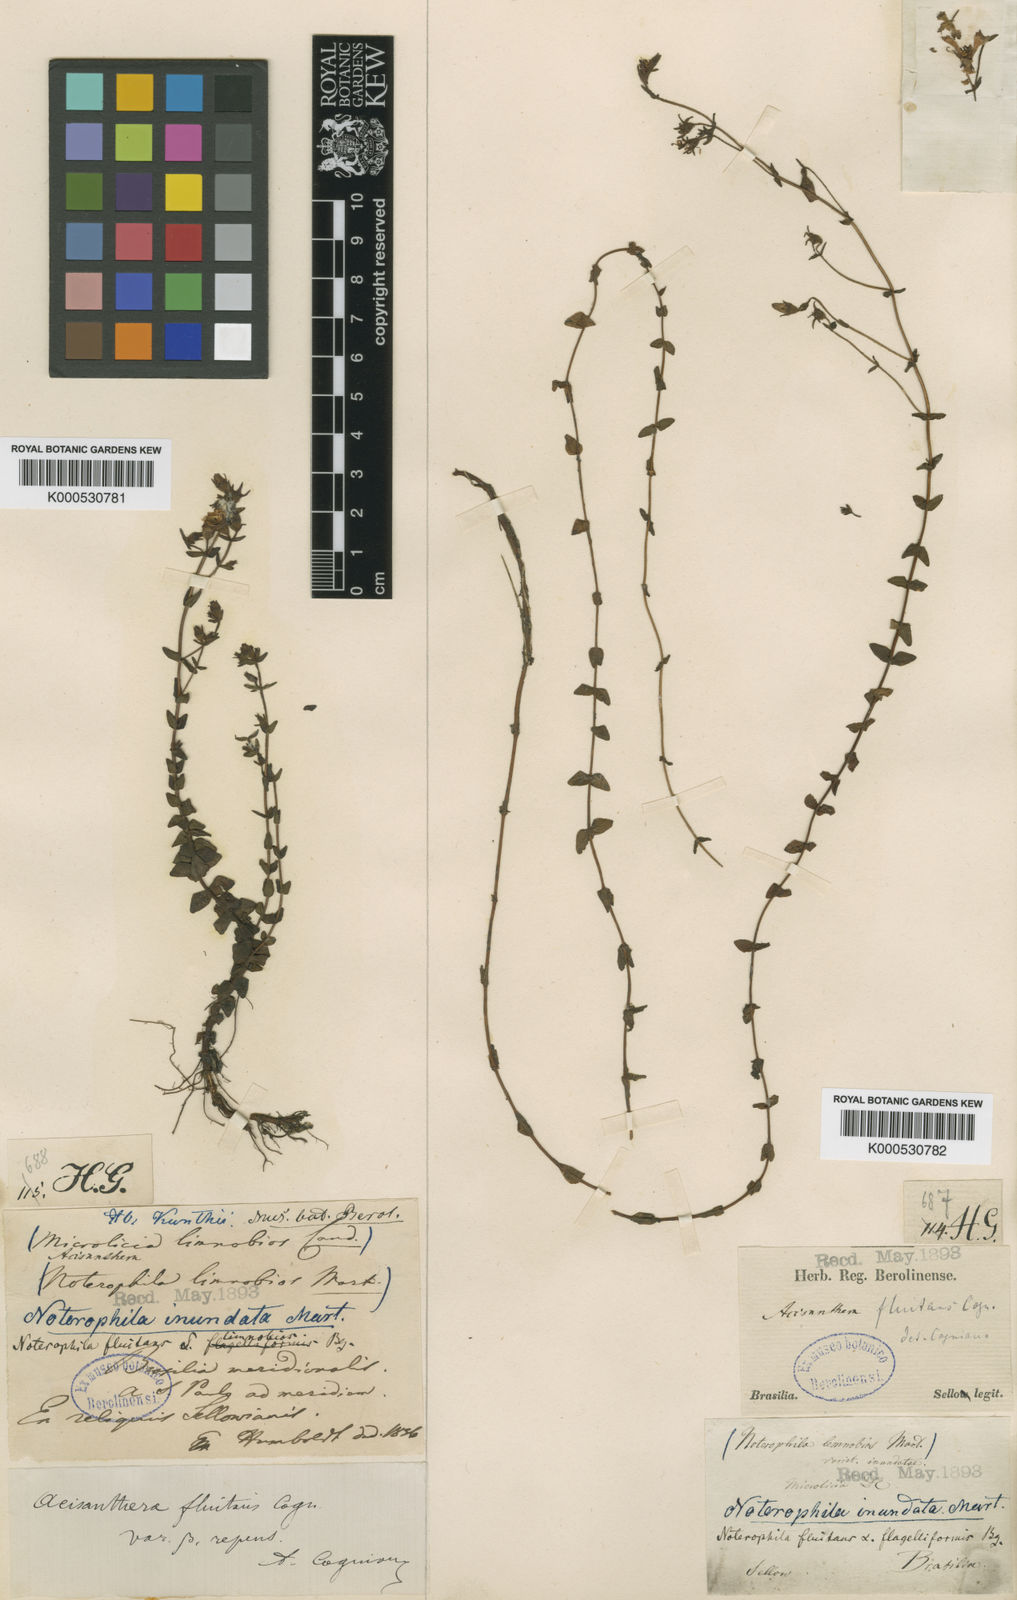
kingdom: Plantae
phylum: Tracheophyta
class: Magnoliopsida
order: Myrtales
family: Melastomataceae
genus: Noterophila
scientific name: Noterophila limnobios
